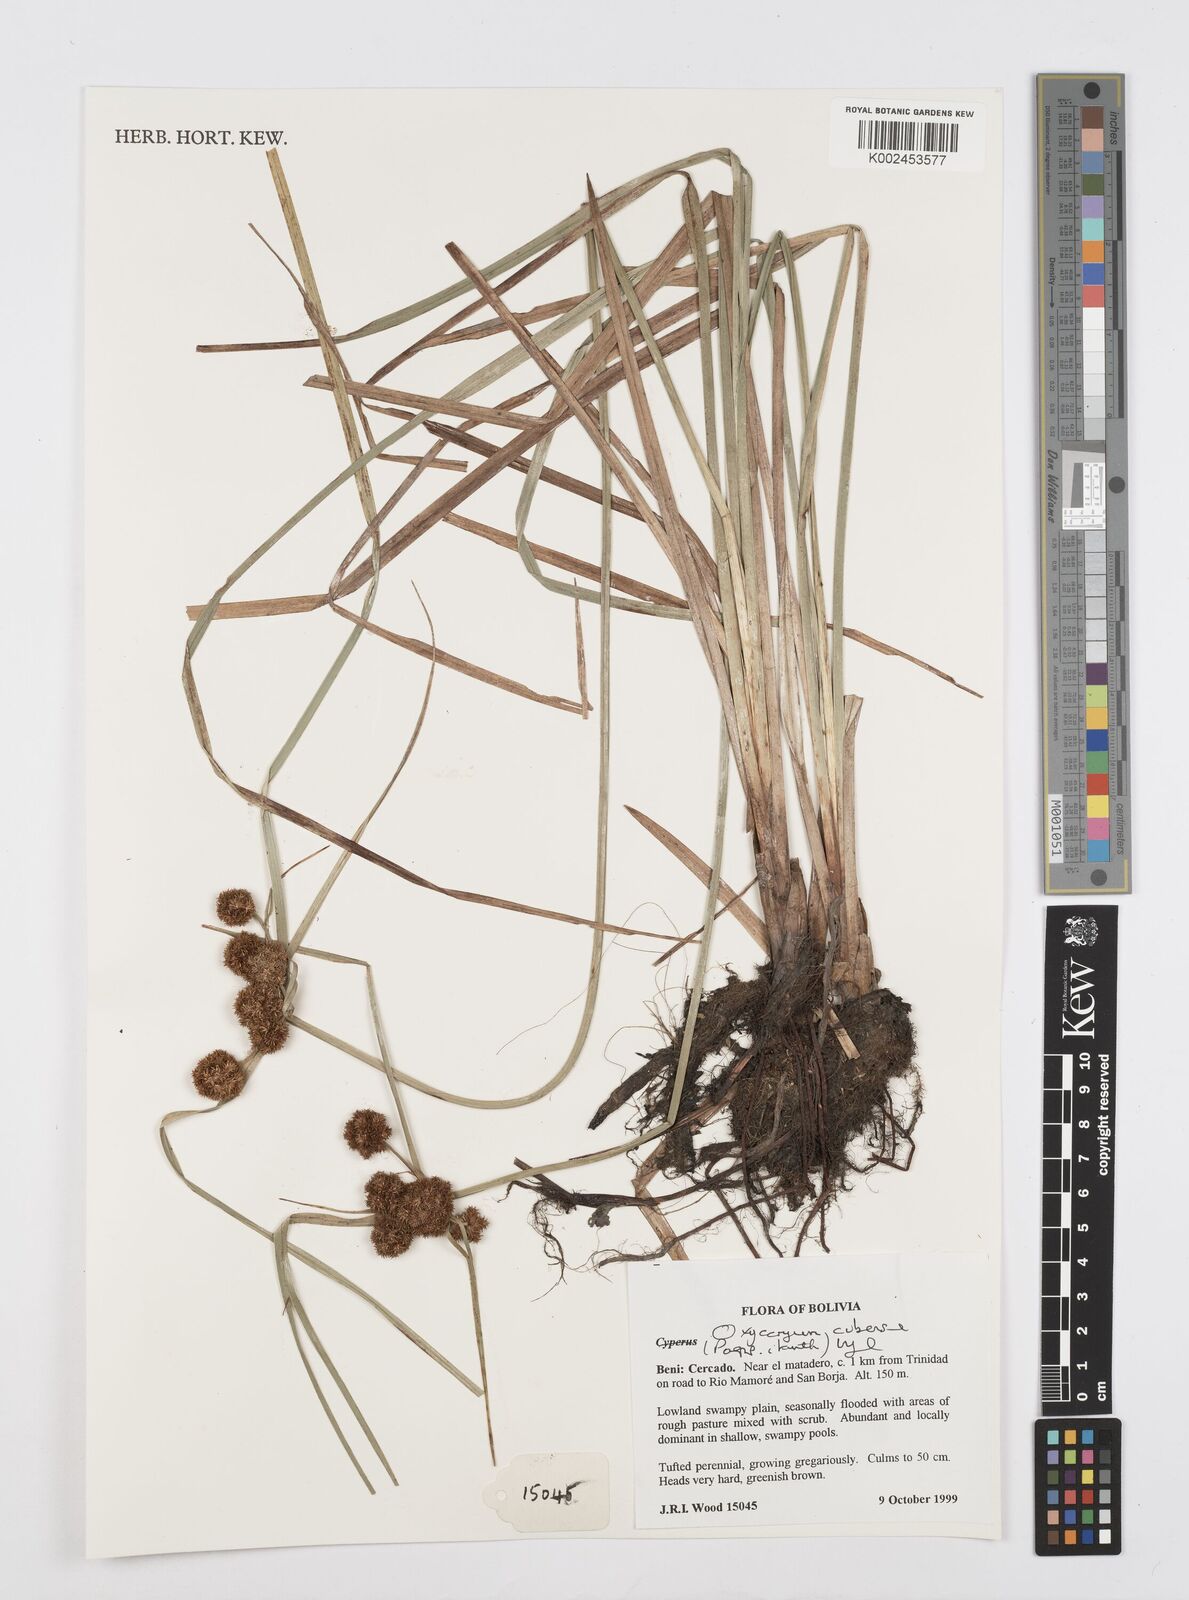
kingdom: Plantae
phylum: Tracheophyta
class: Liliopsida
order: Poales
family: Cyperaceae
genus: Cyperus
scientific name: Cyperus elegans
